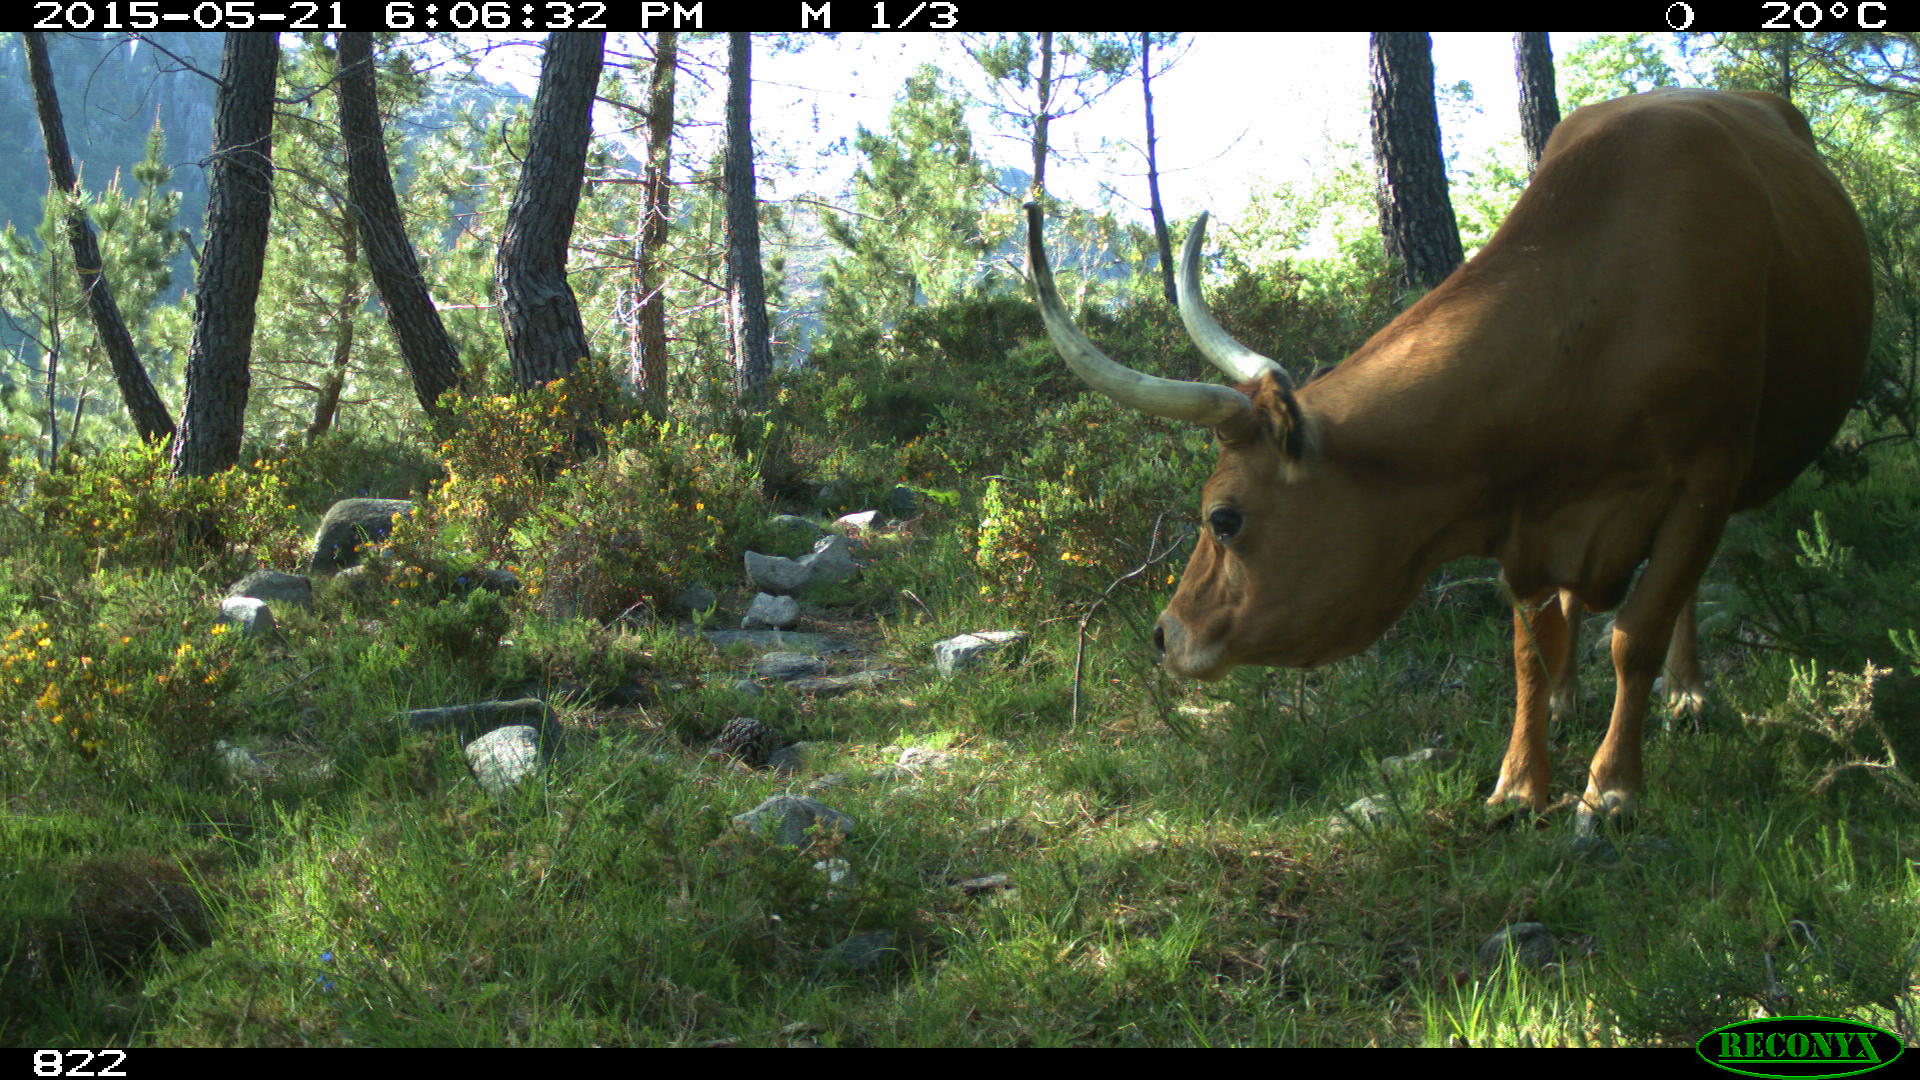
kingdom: Animalia
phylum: Chordata
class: Mammalia
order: Artiodactyla
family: Bovidae
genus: Bos
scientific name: Bos taurus
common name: Domesticated cattle
